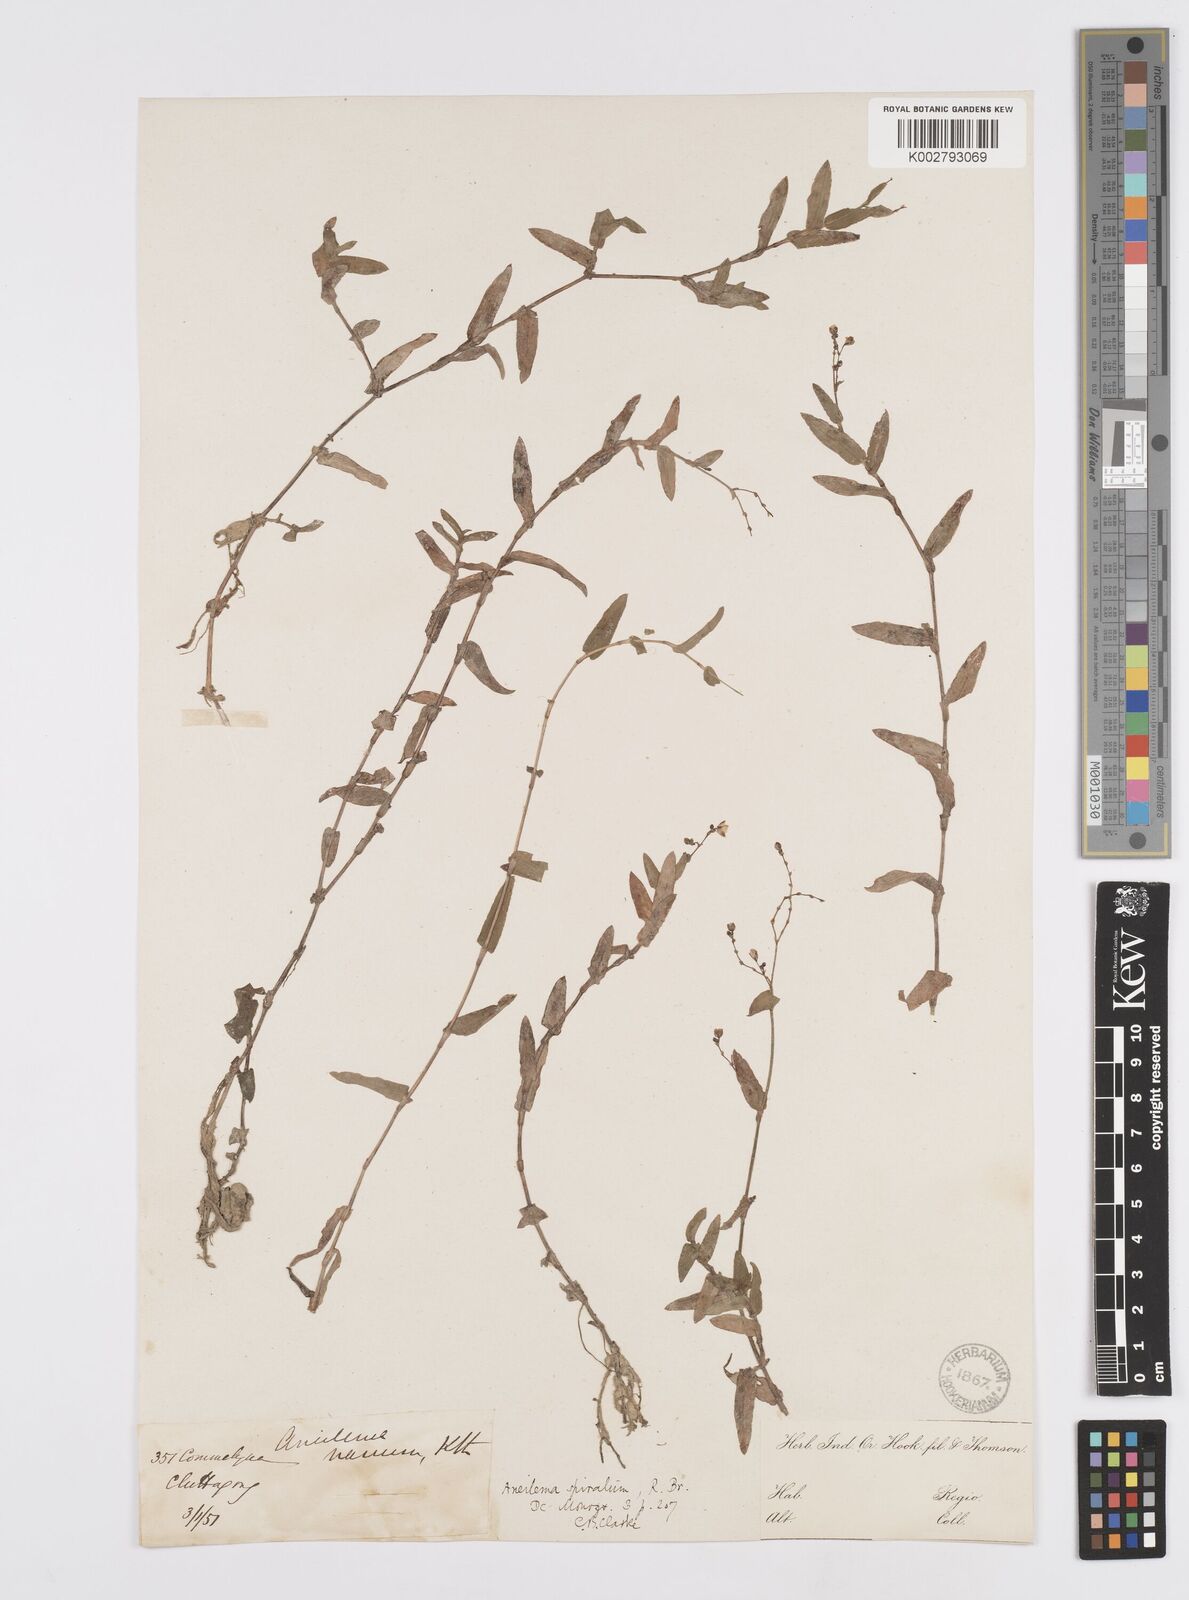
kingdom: Plantae
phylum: Tracheophyta
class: Liliopsida
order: Commelinales
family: Commelinaceae
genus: Murdannia
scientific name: Murdannia spirata
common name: Asiatic dewflower
